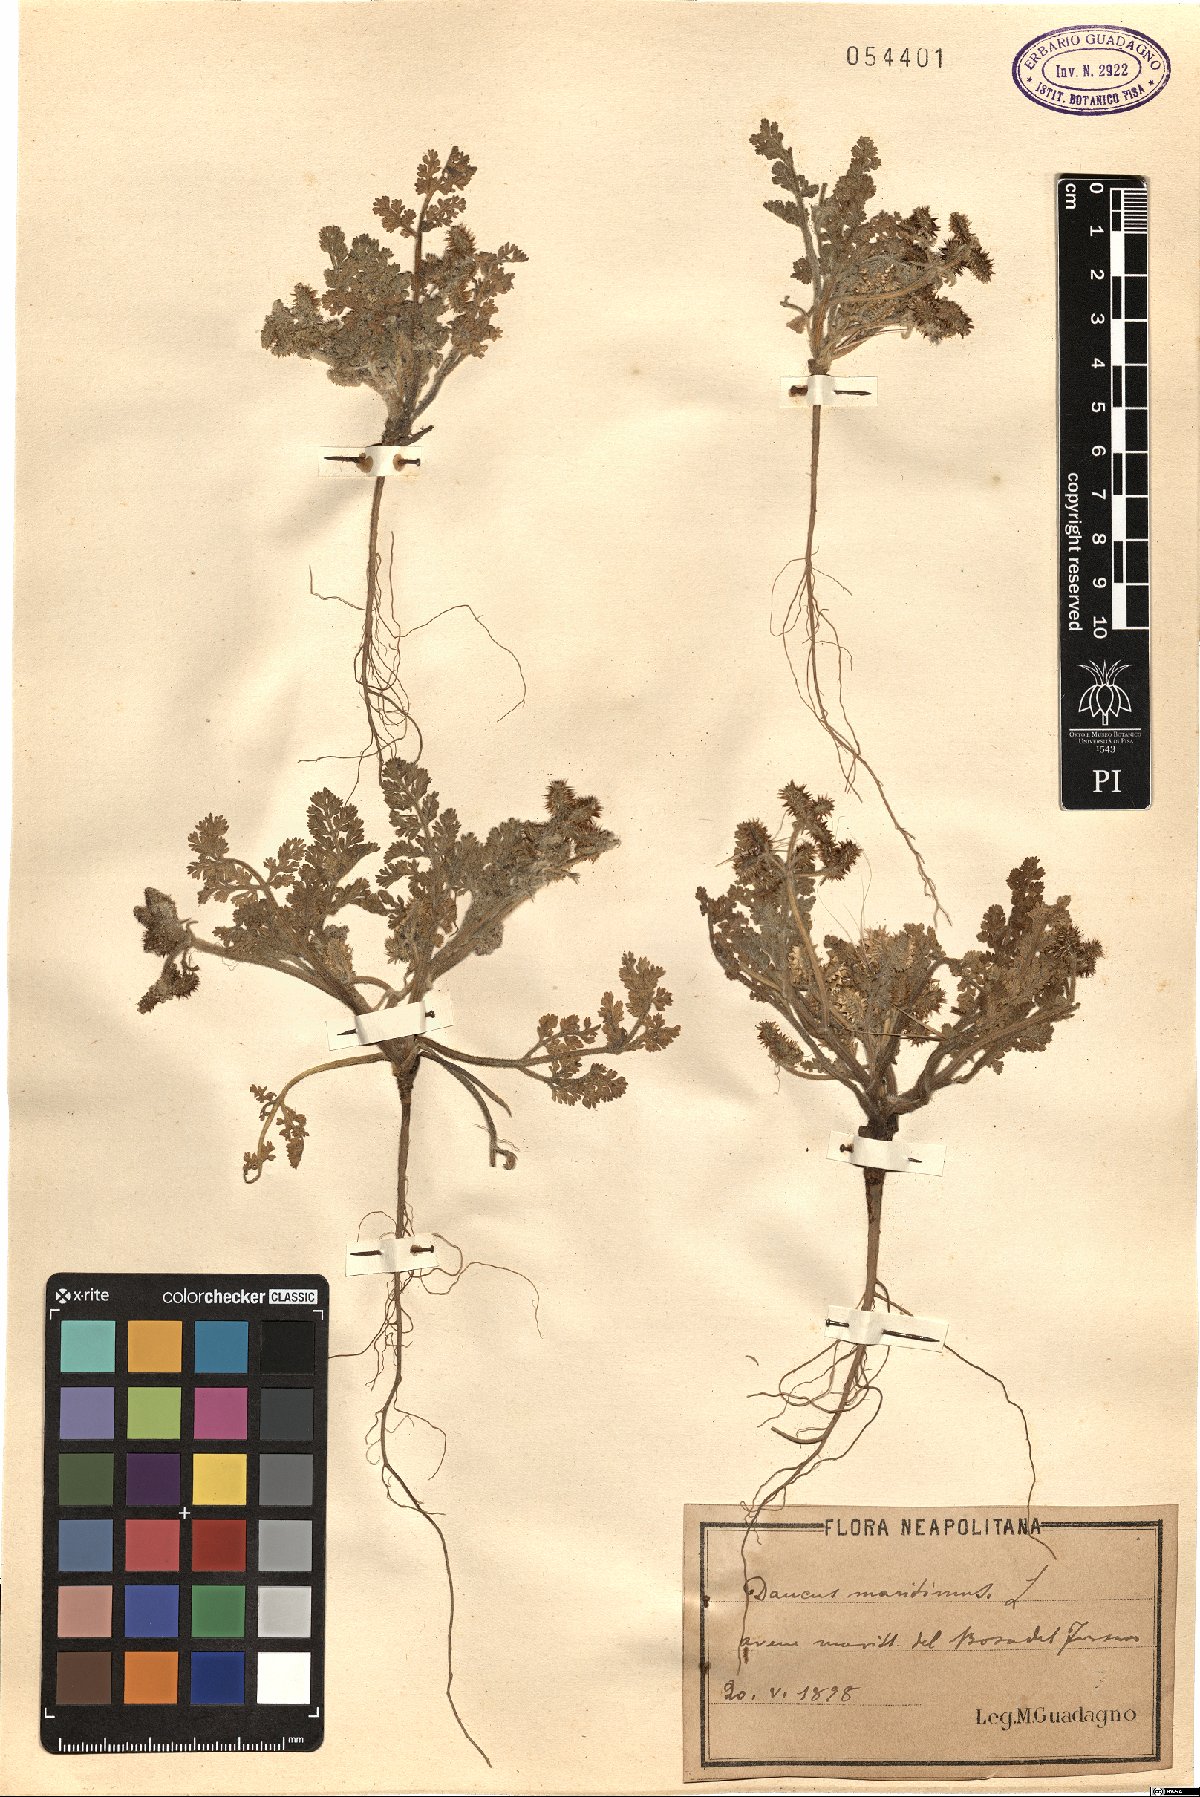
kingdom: Plantae
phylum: Tracheophyta
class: Magnoliopsida
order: Apiales
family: Apiaceae
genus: Daucus
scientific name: Daucus carota
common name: Wild carrot
